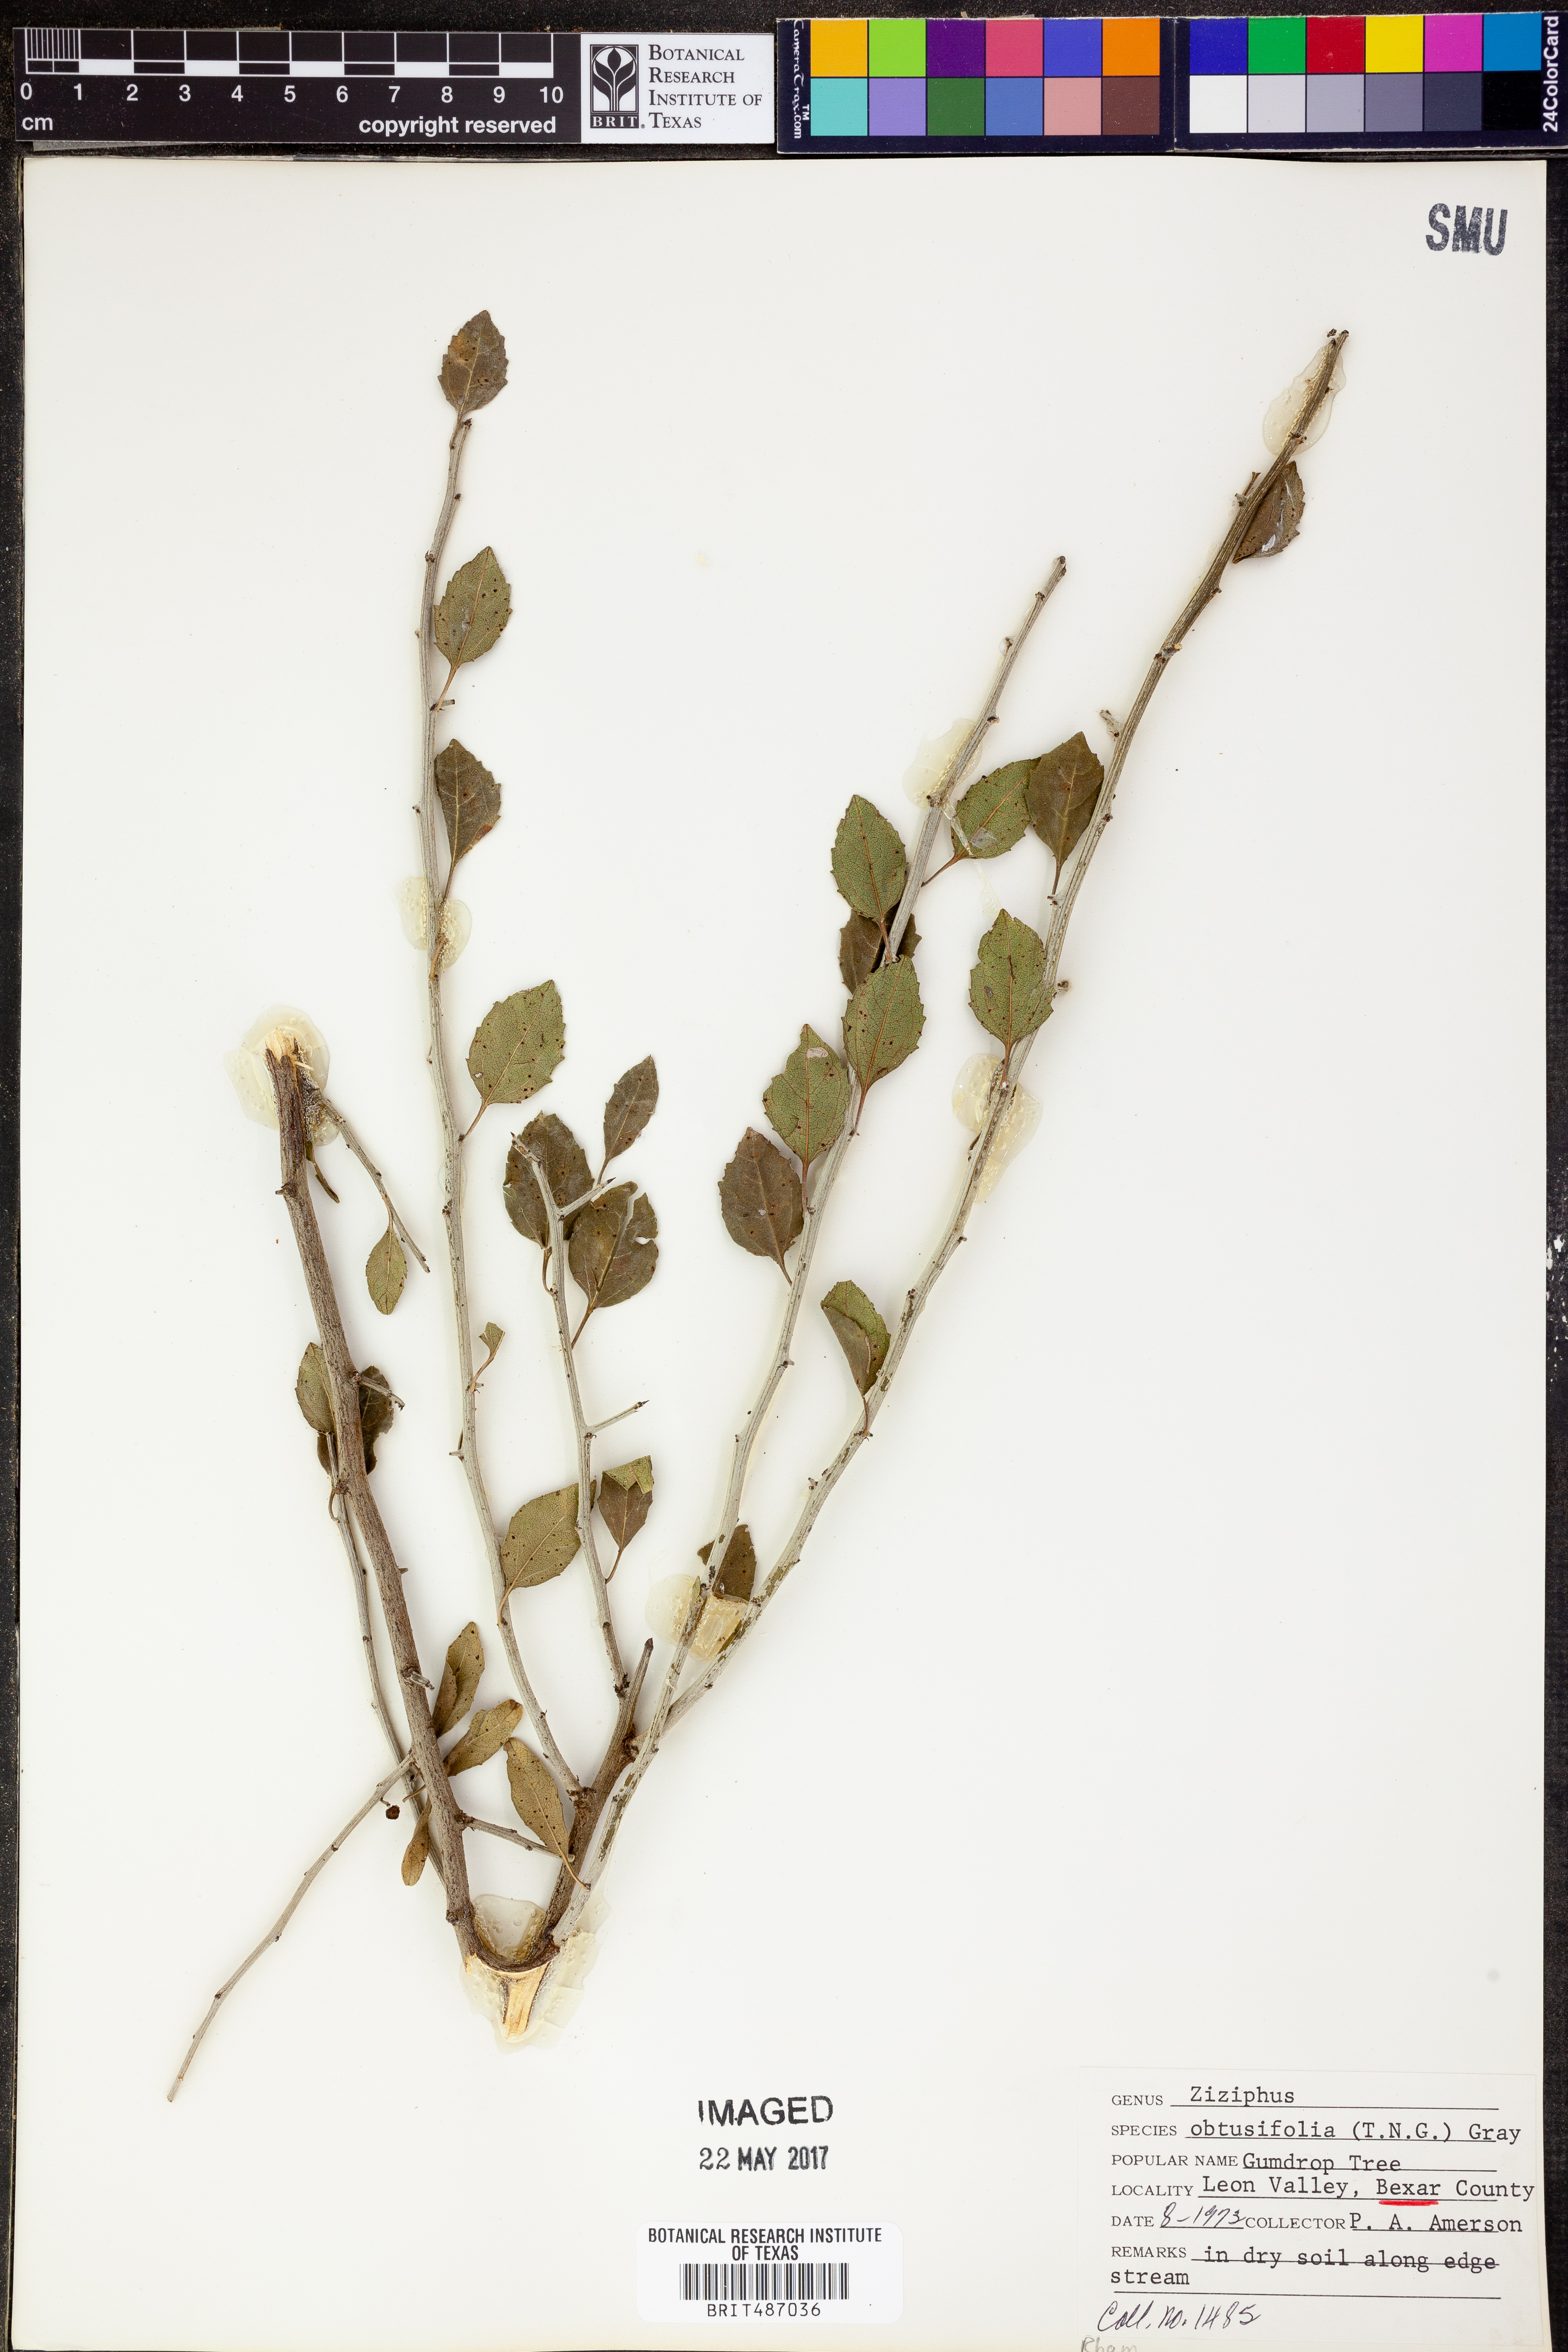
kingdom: Plantae
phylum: Tracheophyta
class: Magnoliopsida
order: Malpighiales
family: Euphorbiaceae
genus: Acalypha
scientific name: Acalypha
